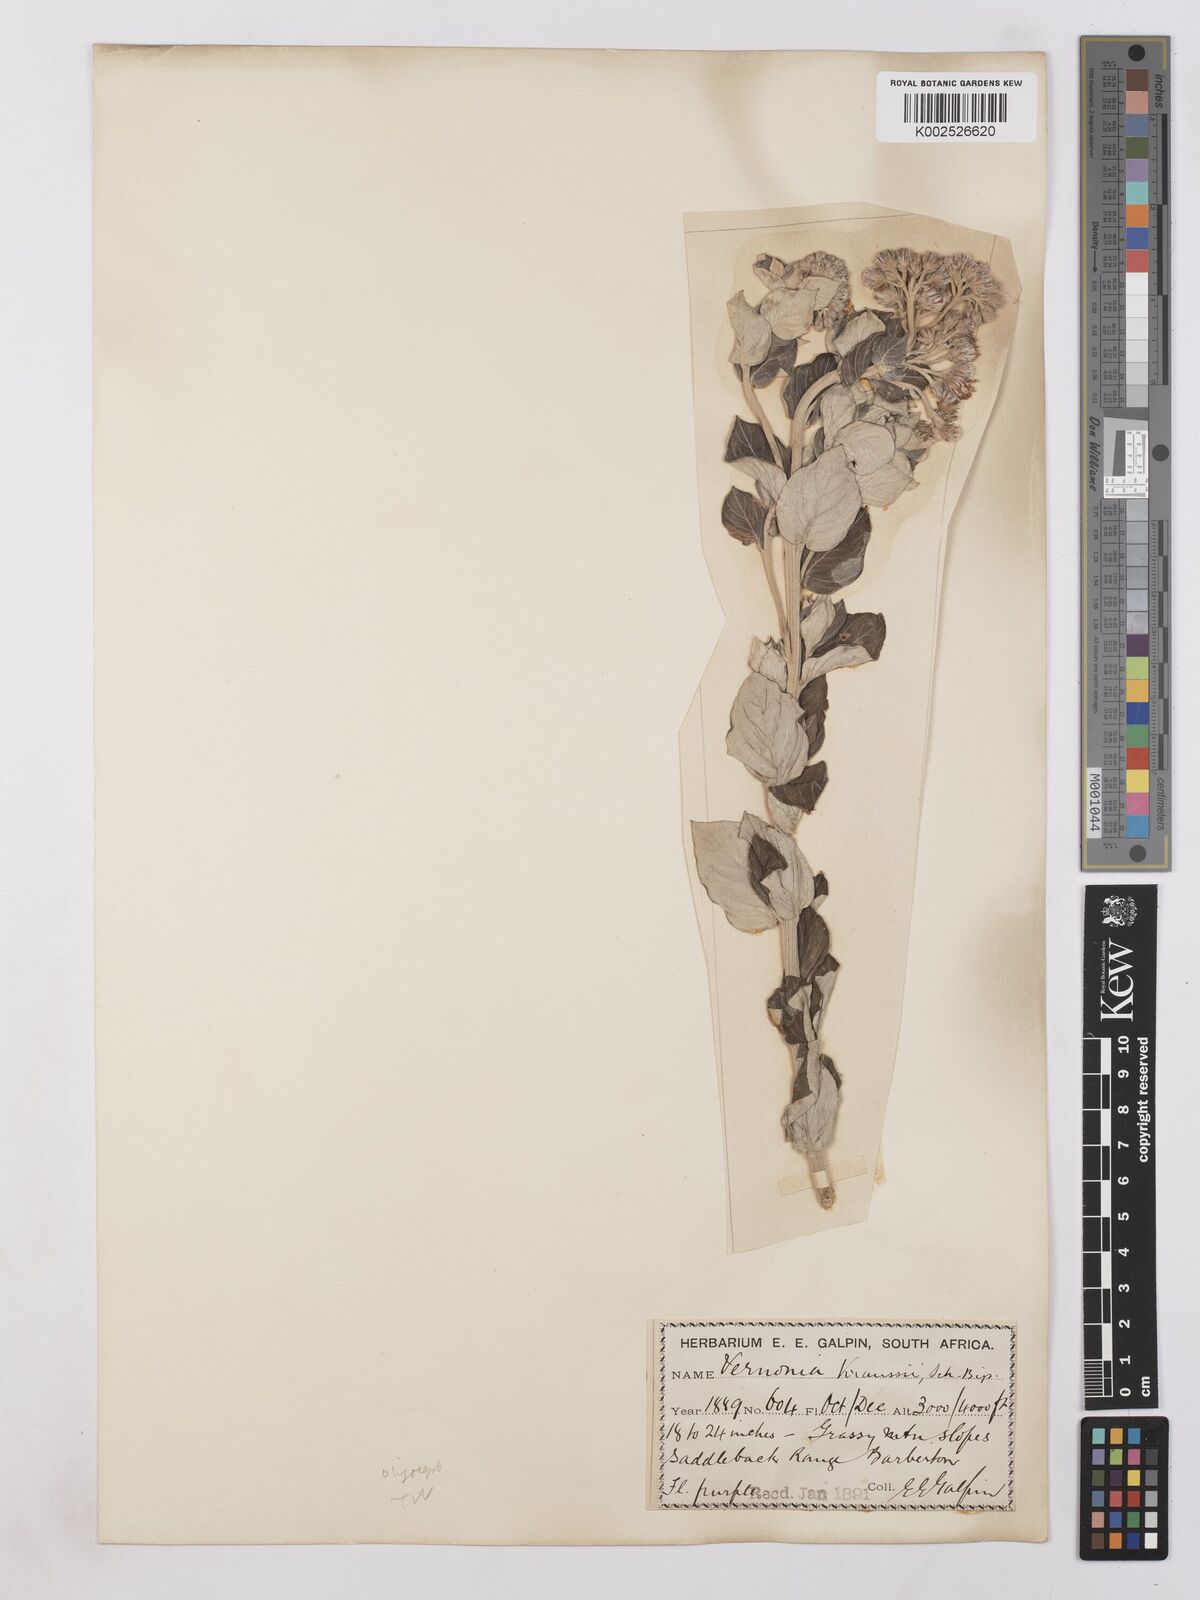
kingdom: Plantae
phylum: Tracheophyta
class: Magnoliopsida
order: Asterales
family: Asteraceae
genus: Hilliardiella
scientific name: Hilliardiella oligocephala
